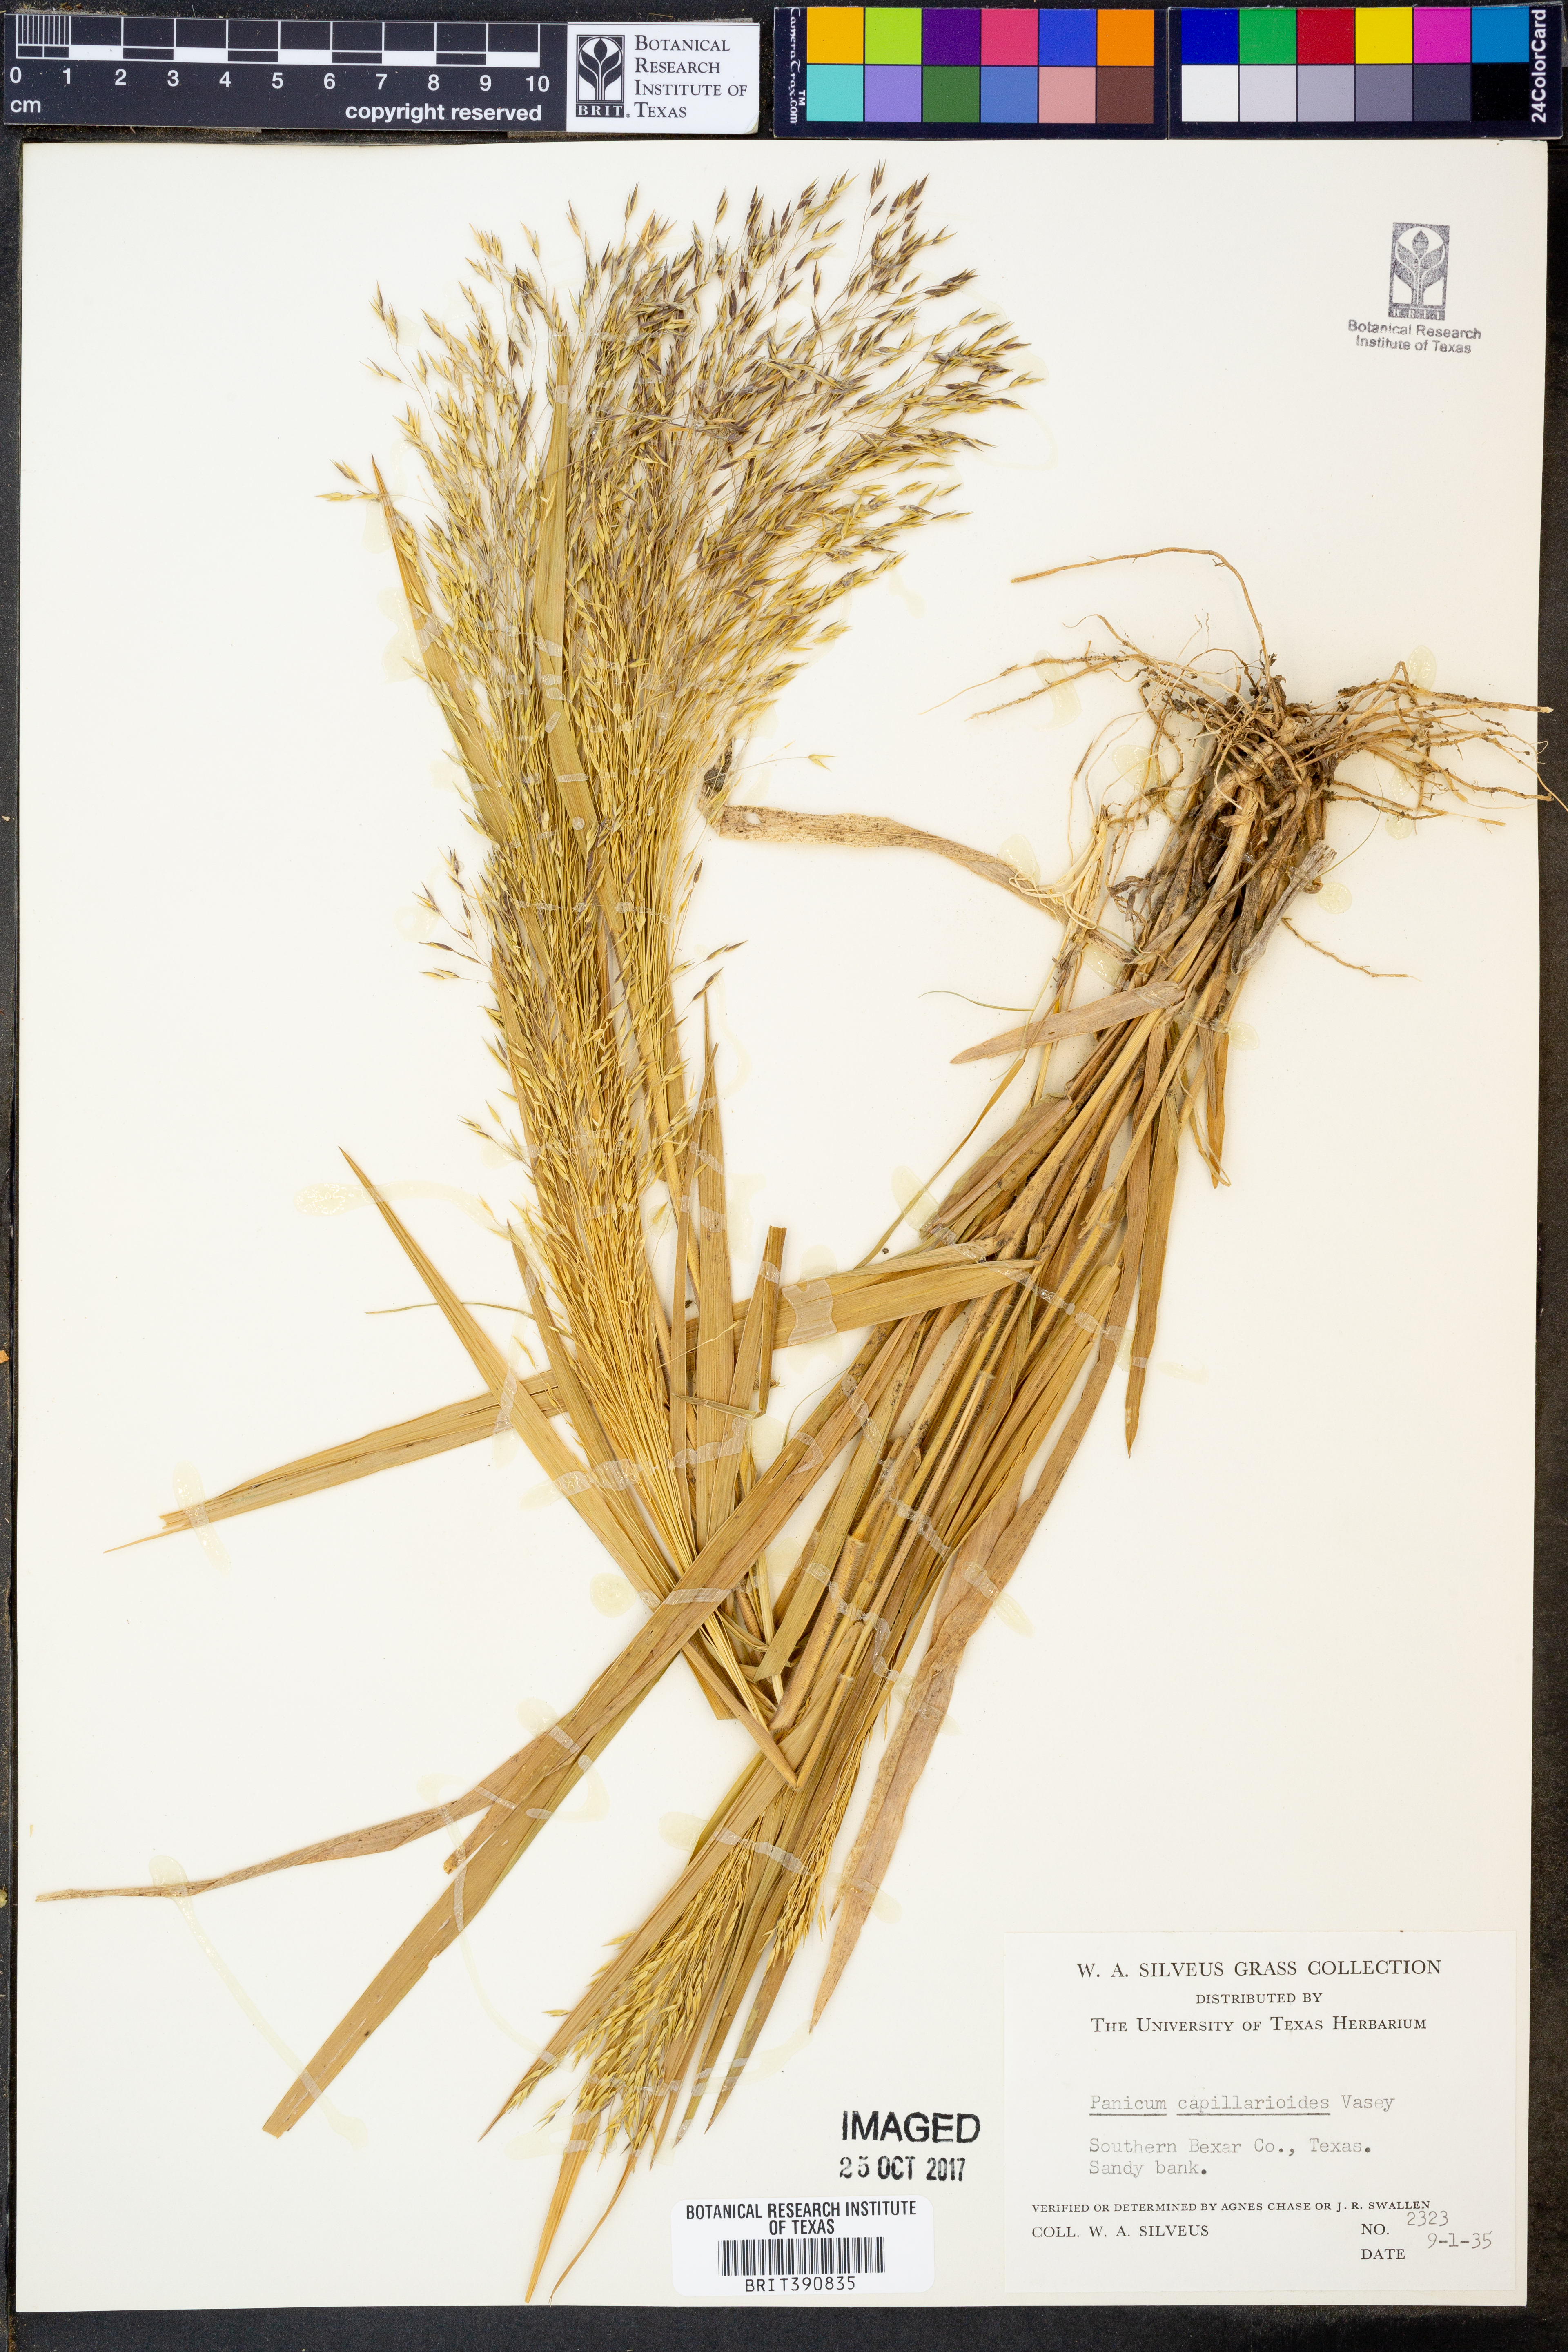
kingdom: Plantae
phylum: Tracheophyta
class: Liliopsida
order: Poales
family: Poaceae
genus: Panicum
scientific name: Panicum capillarioides
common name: Long-beak witchgrass
